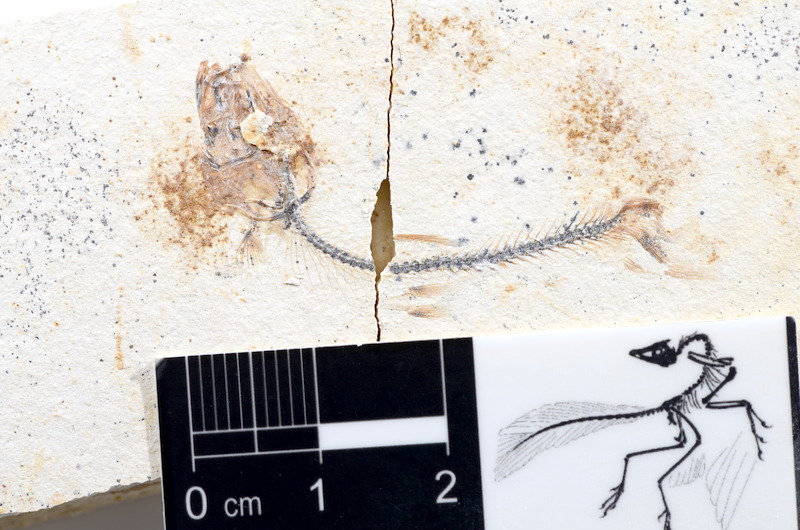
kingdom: Animalia
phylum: Chordata
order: Salmoniformes
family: Orthogonikleithridae
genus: Orthogonikleithrus
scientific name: Orthogonikleithrus hoelli
